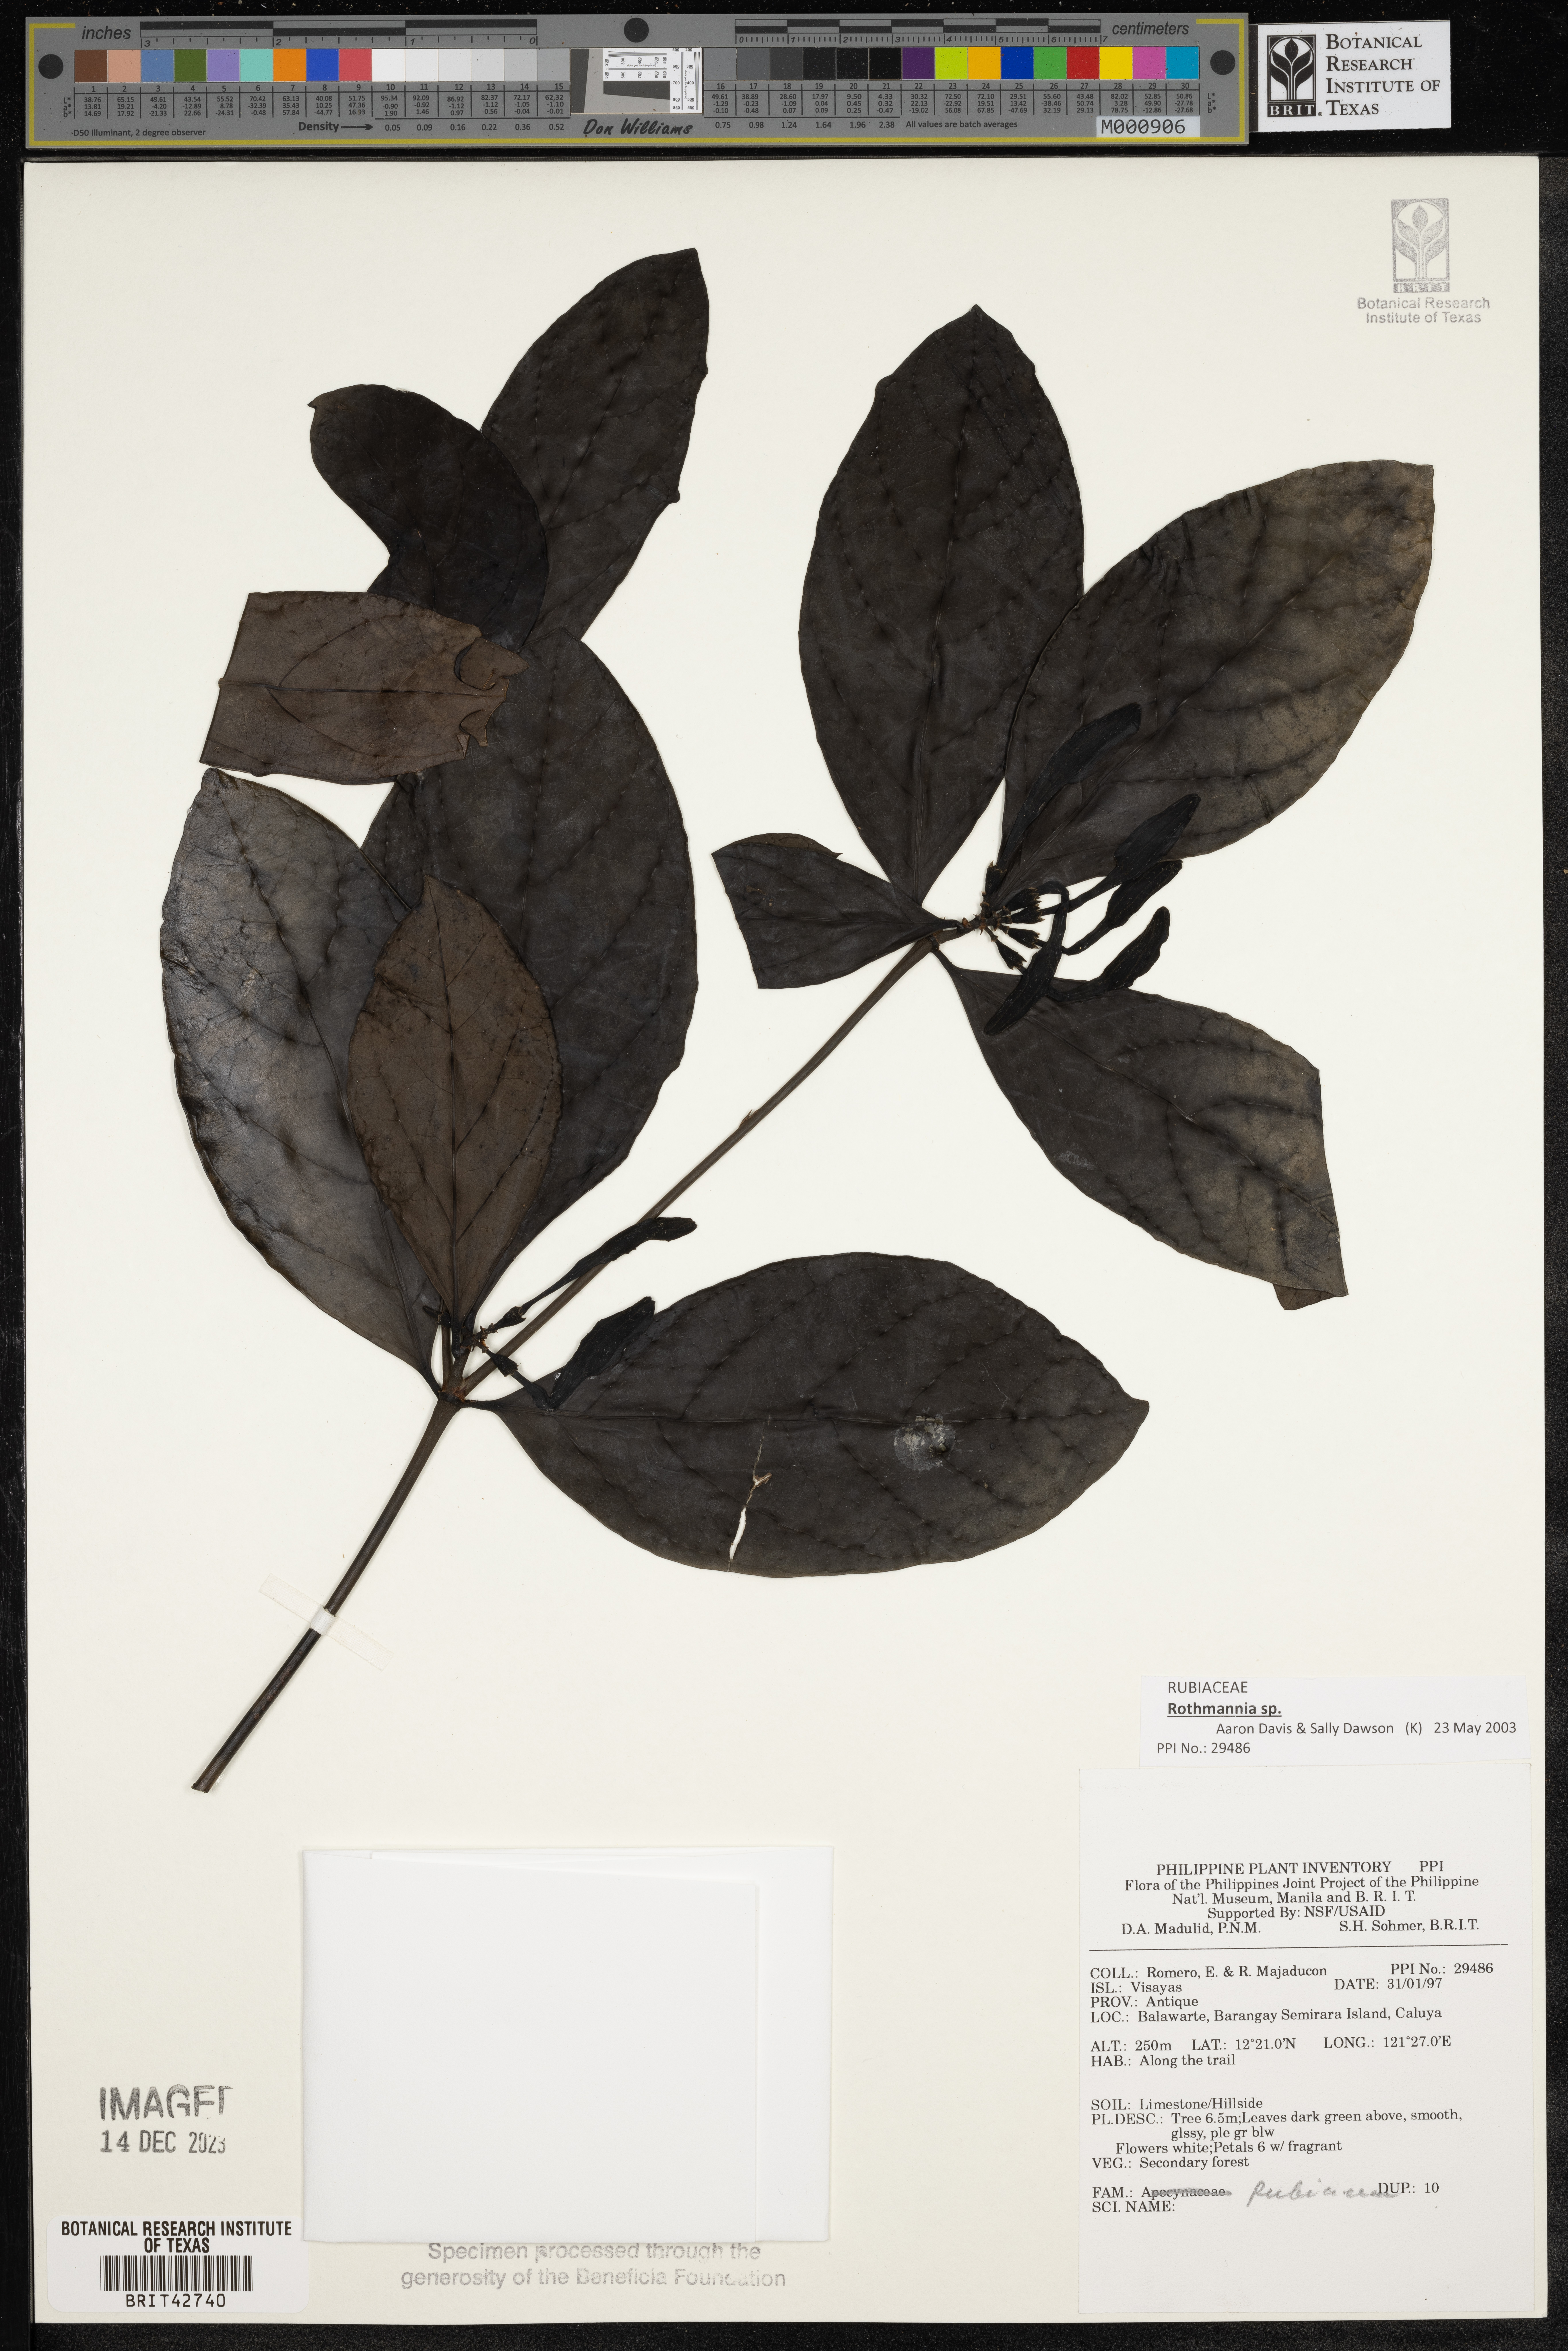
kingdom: Plantae
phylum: Tracheophyta
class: Magnoliopsida
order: Gentianales
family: Rubiaceae
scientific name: Rubiaceae
